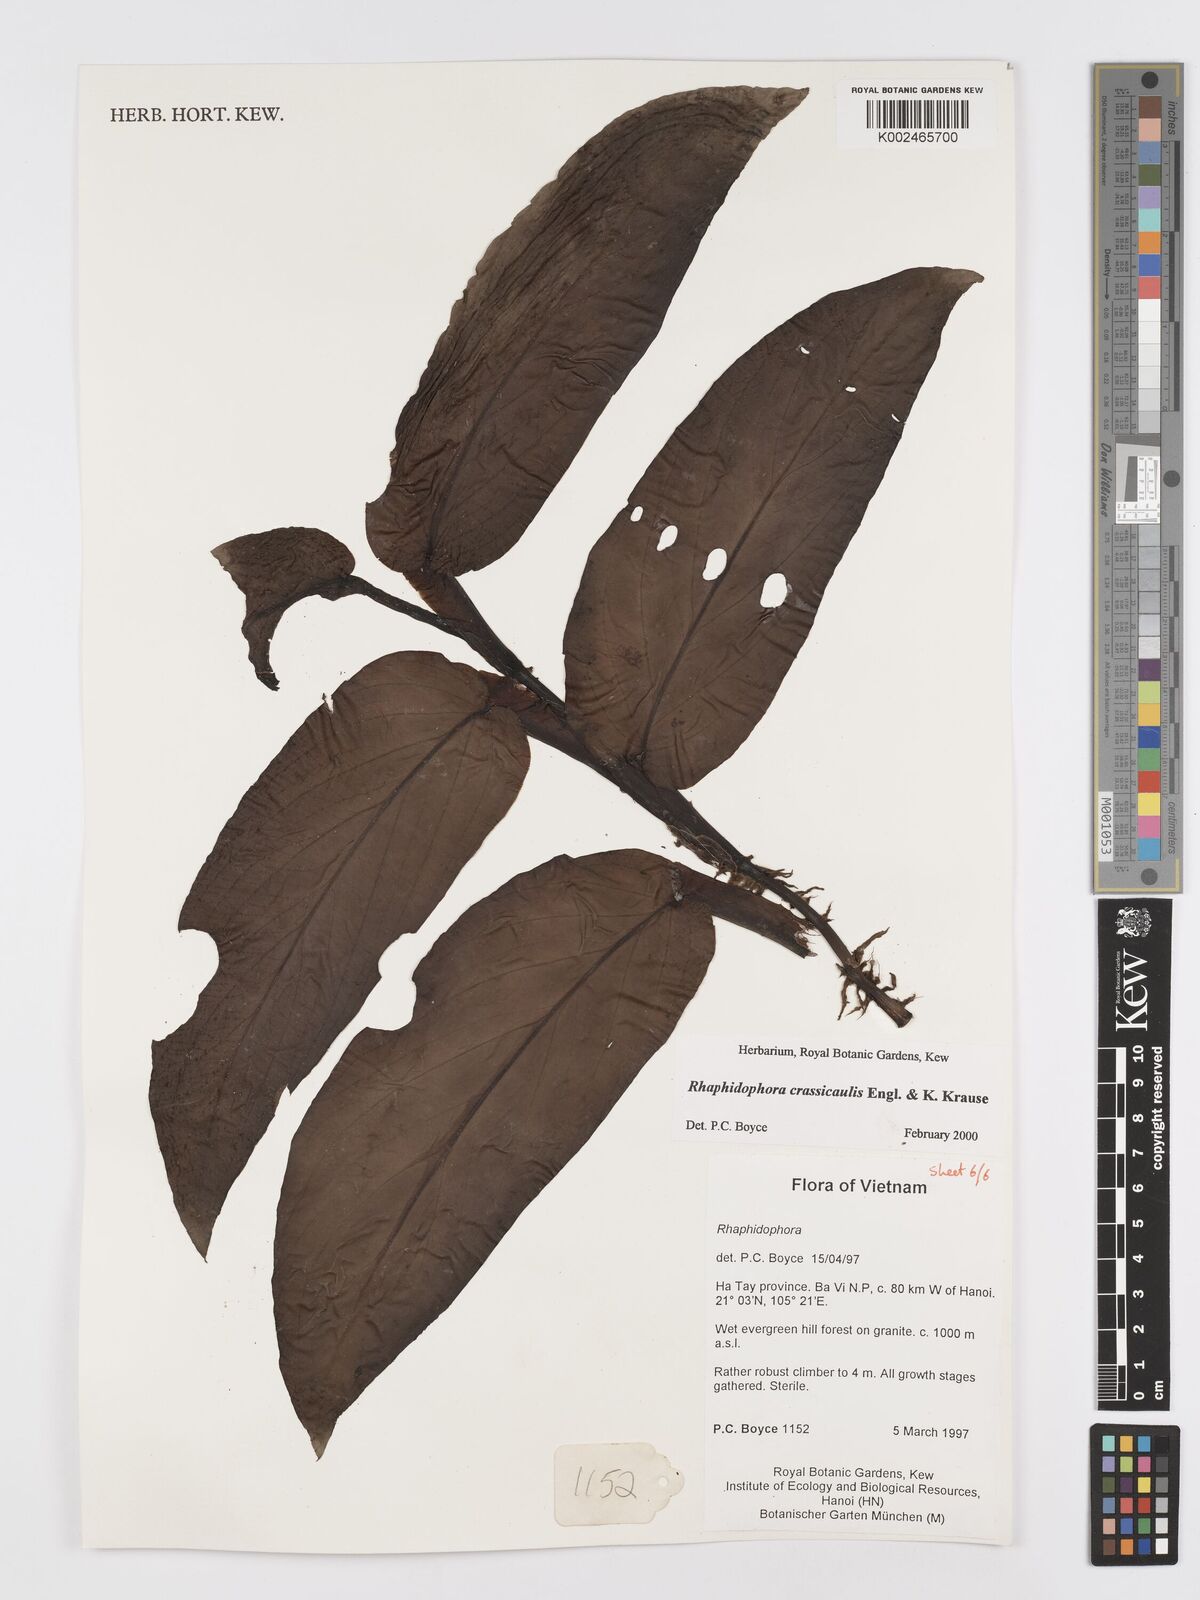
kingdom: Plantae
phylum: Tracheophyta
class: Liliopsida
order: Alismatales
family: Araceae
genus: Rhaphidophora
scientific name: Rhaphidophora crassicaulis
